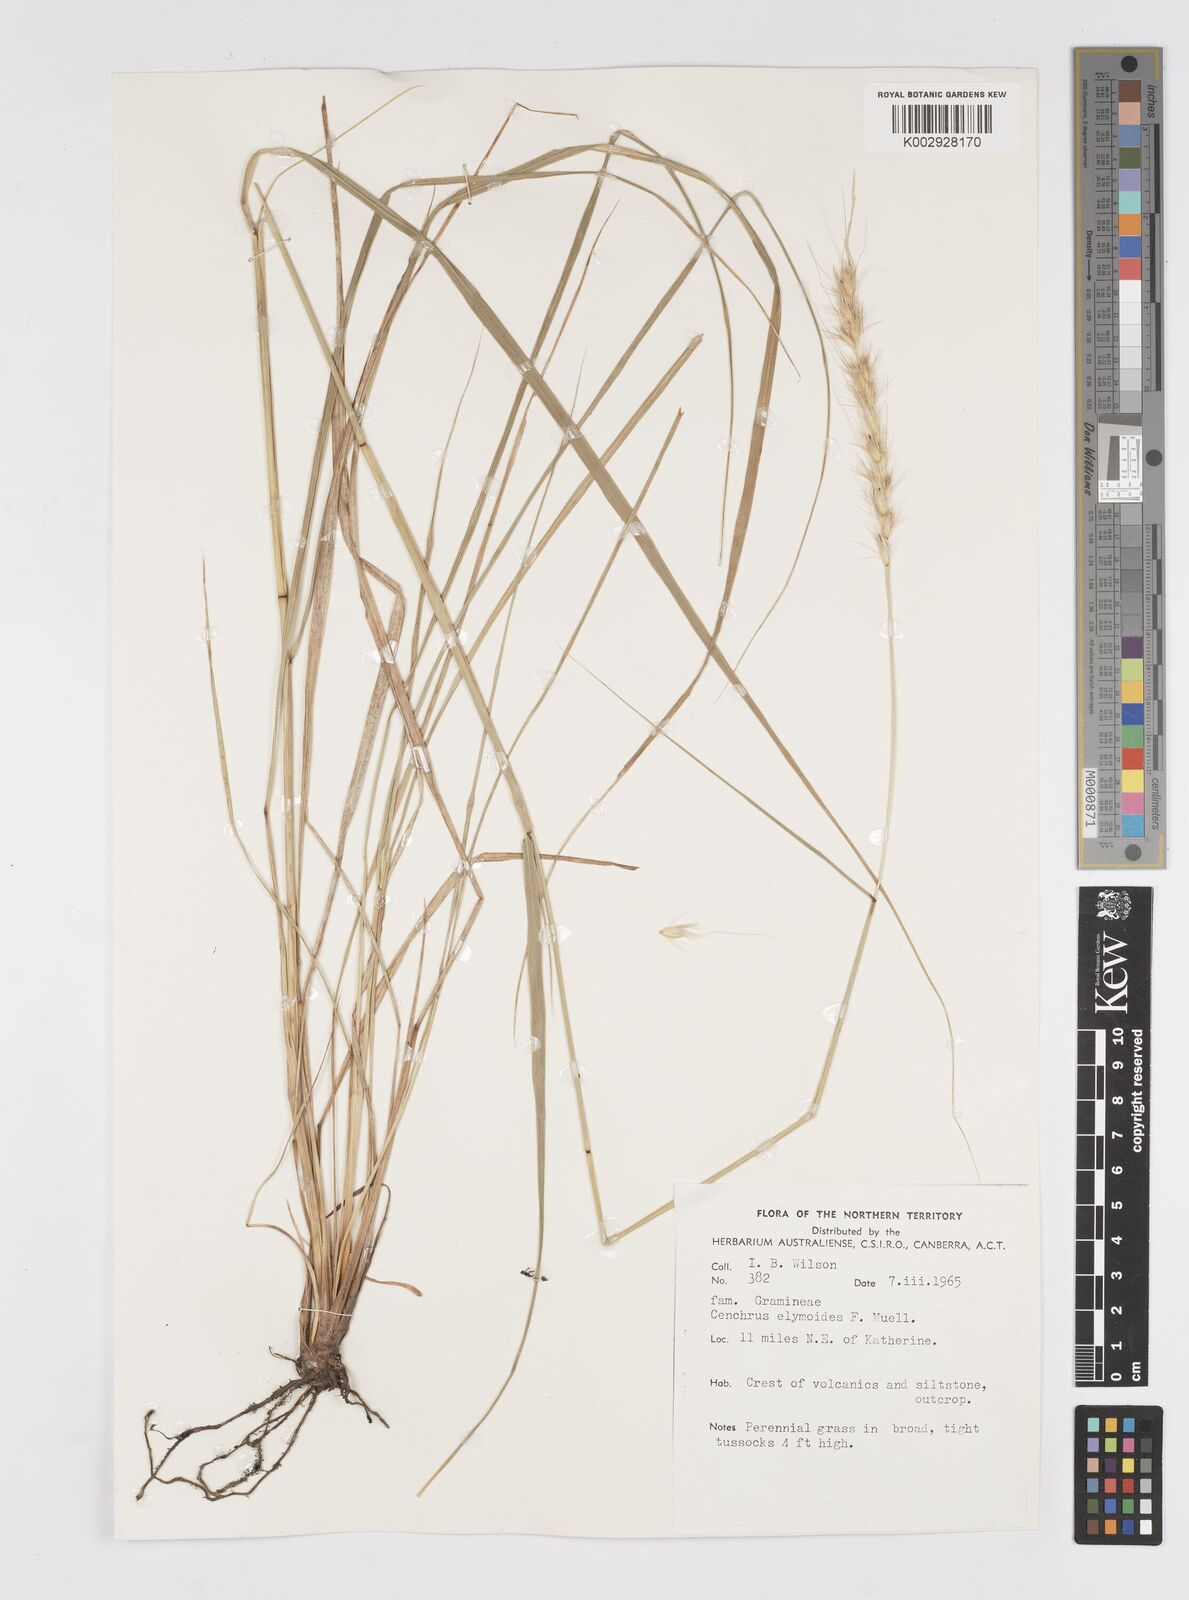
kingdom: Plantae
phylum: Tracheophyta
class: Liliopsida
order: Poales
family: Poaceae
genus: Cenchrus
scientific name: Cenchrus elymoides
